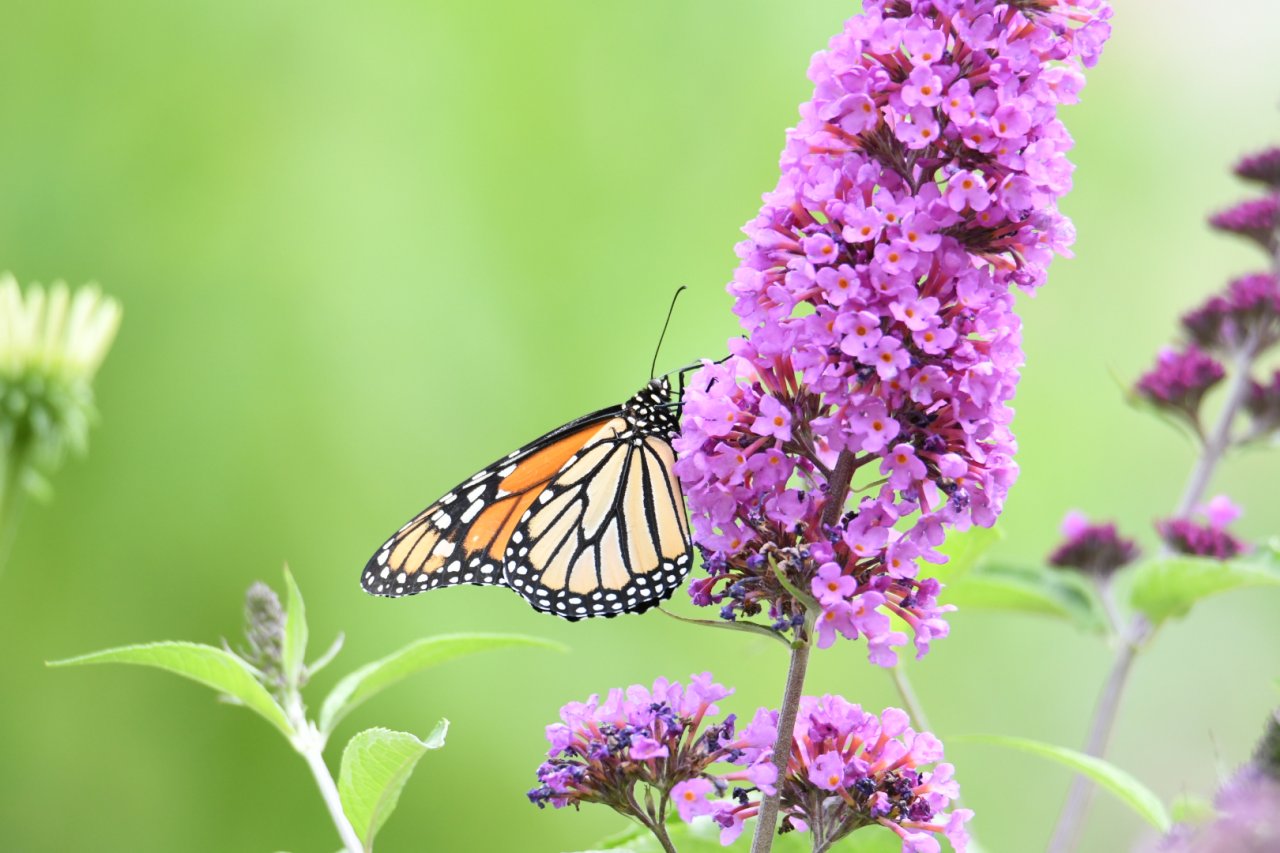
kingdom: Animalia
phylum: Arthropoda
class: Insecta
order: Lepidoptera
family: Nymphalidae
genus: Danaus
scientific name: Danaus plexippus
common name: Monarch
